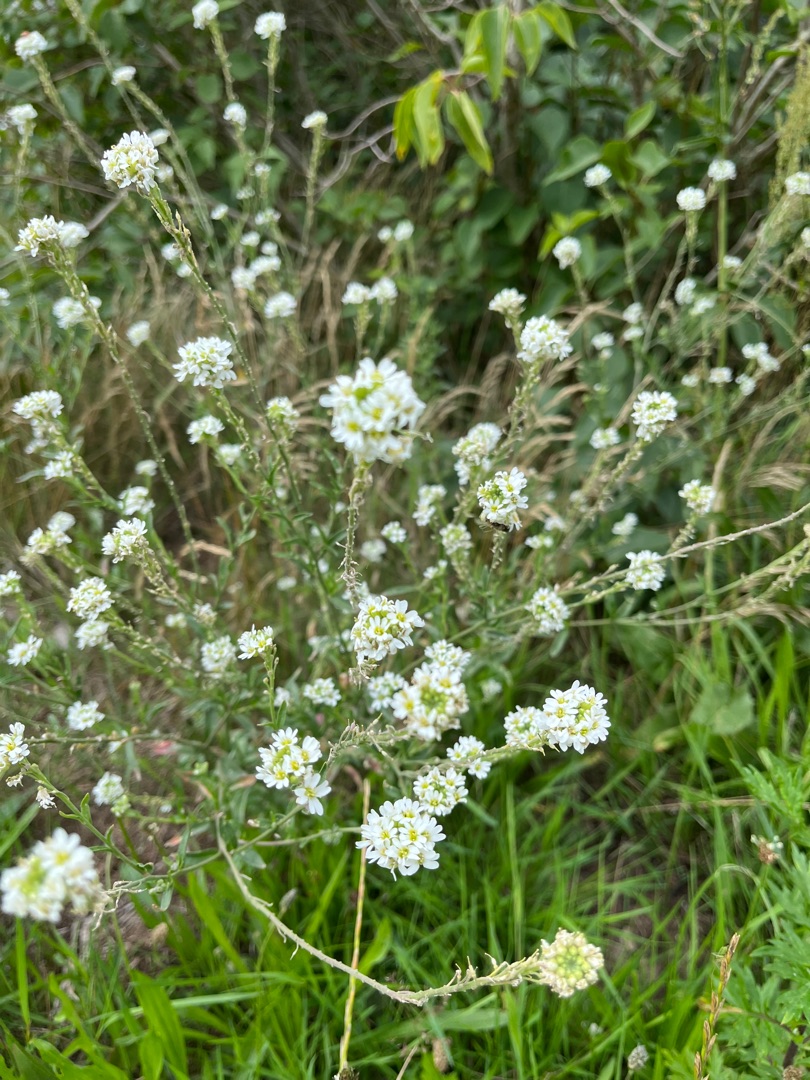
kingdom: Plantae
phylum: Tracheophyta
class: Magnoliopsida
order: Brassicales
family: Brassicaceae
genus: Berteroa
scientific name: Berteroa incana
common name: Kløvplade
